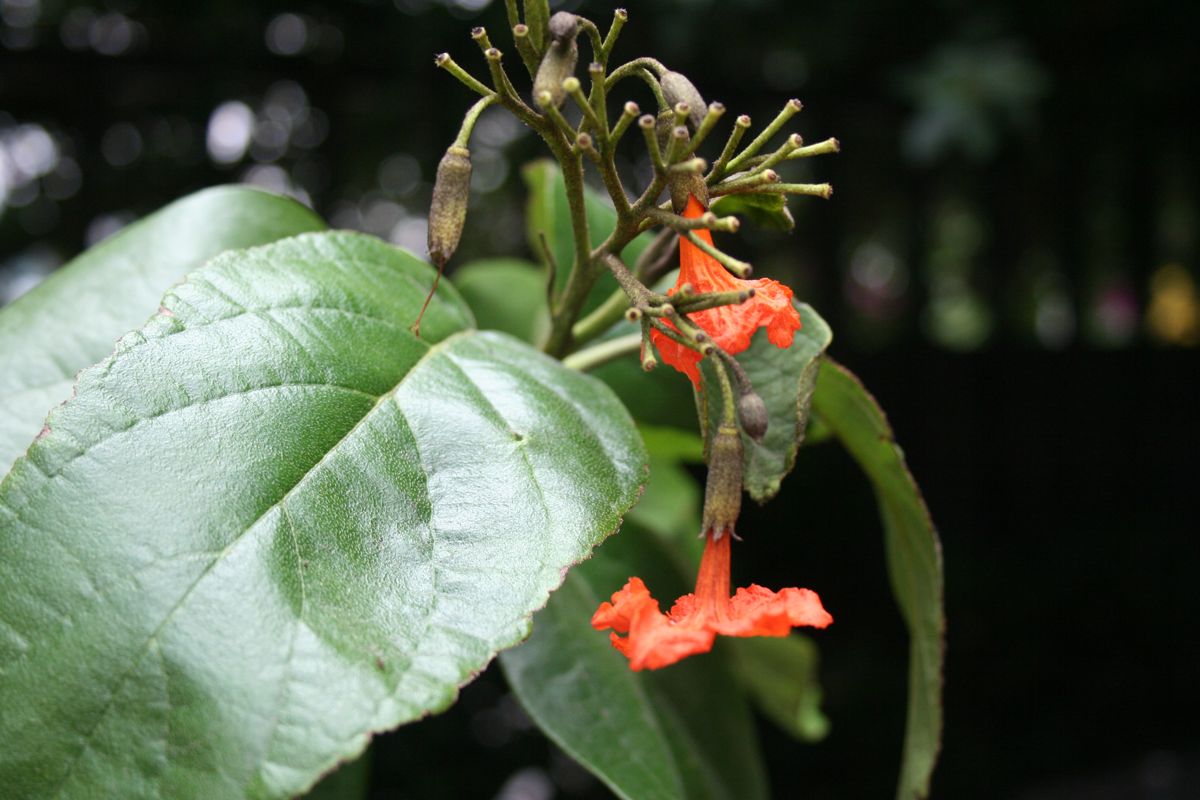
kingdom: Plantae
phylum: Tracheophyta
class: Magnoliopsida
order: Boraginales
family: Cordiaceae
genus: Cordia
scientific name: Cordia sebestena
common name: Largeleaf geigertree
